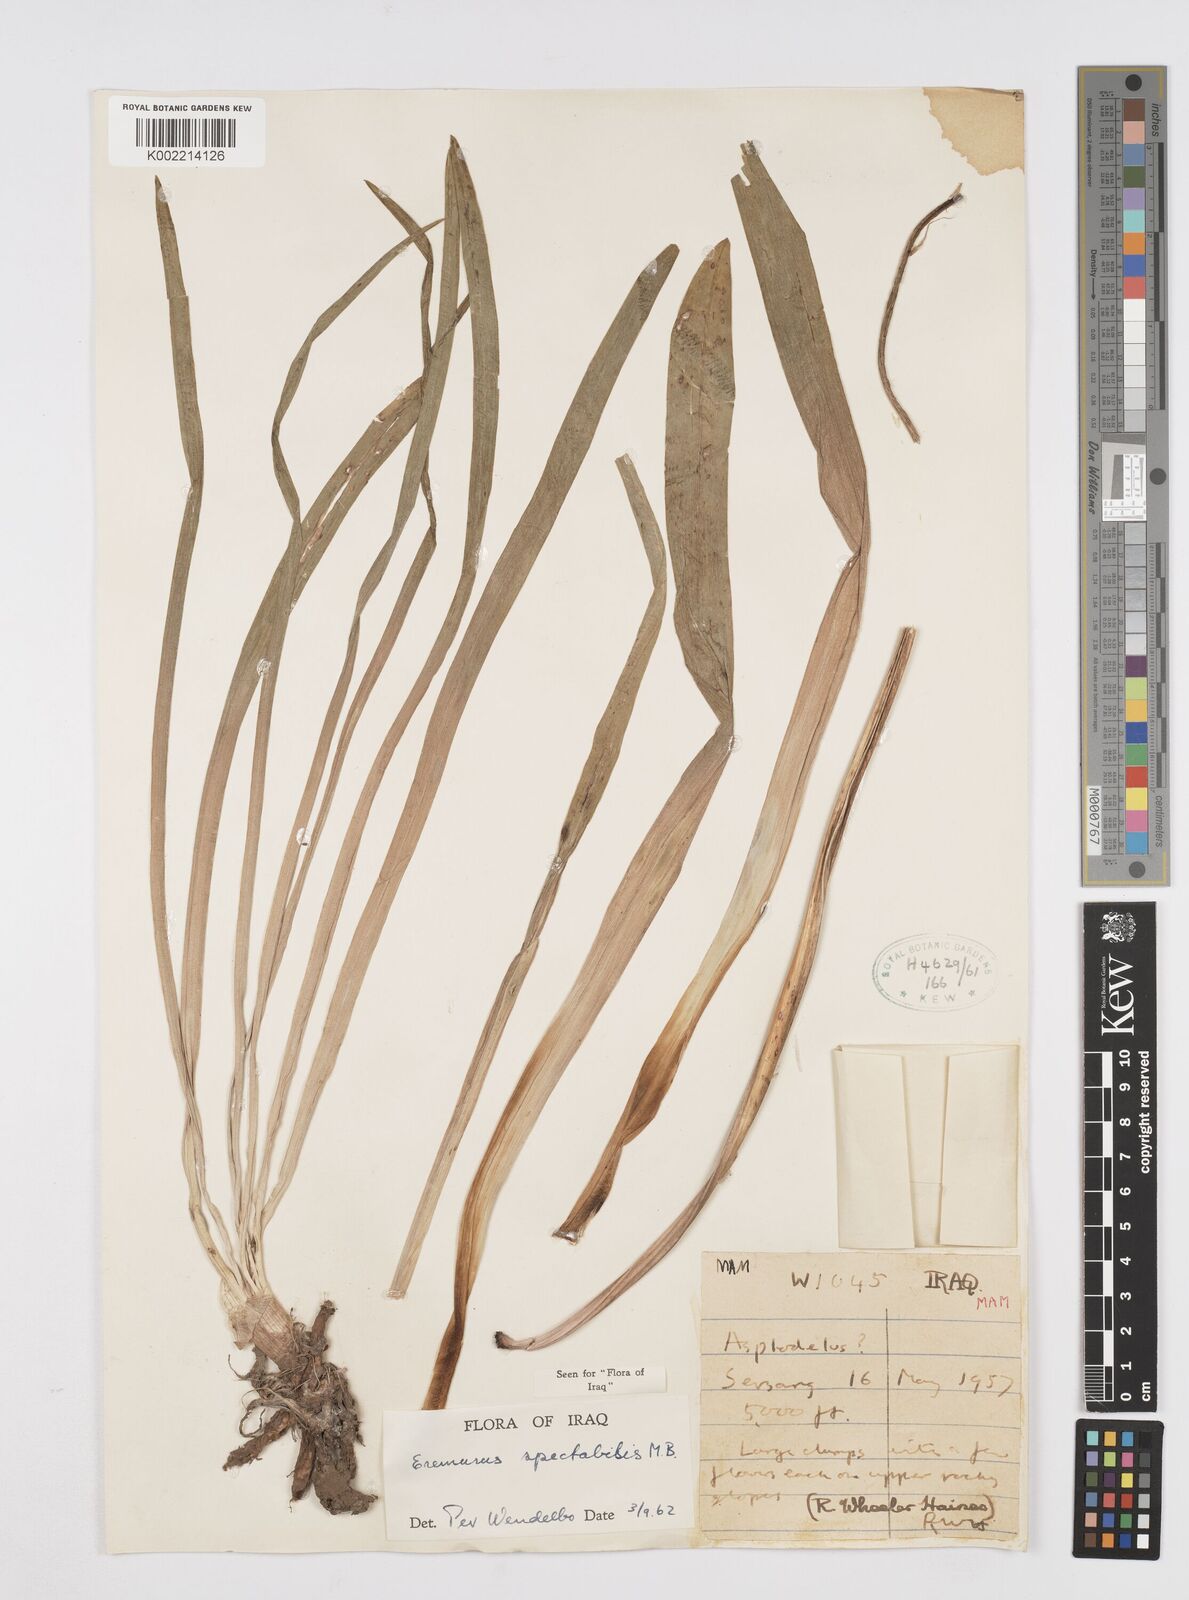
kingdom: Plantae
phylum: Tracheophyta
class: Liliopsida
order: Asparagales
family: Asphodelaceae
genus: Eremurus
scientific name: Eremurus spectabilis
